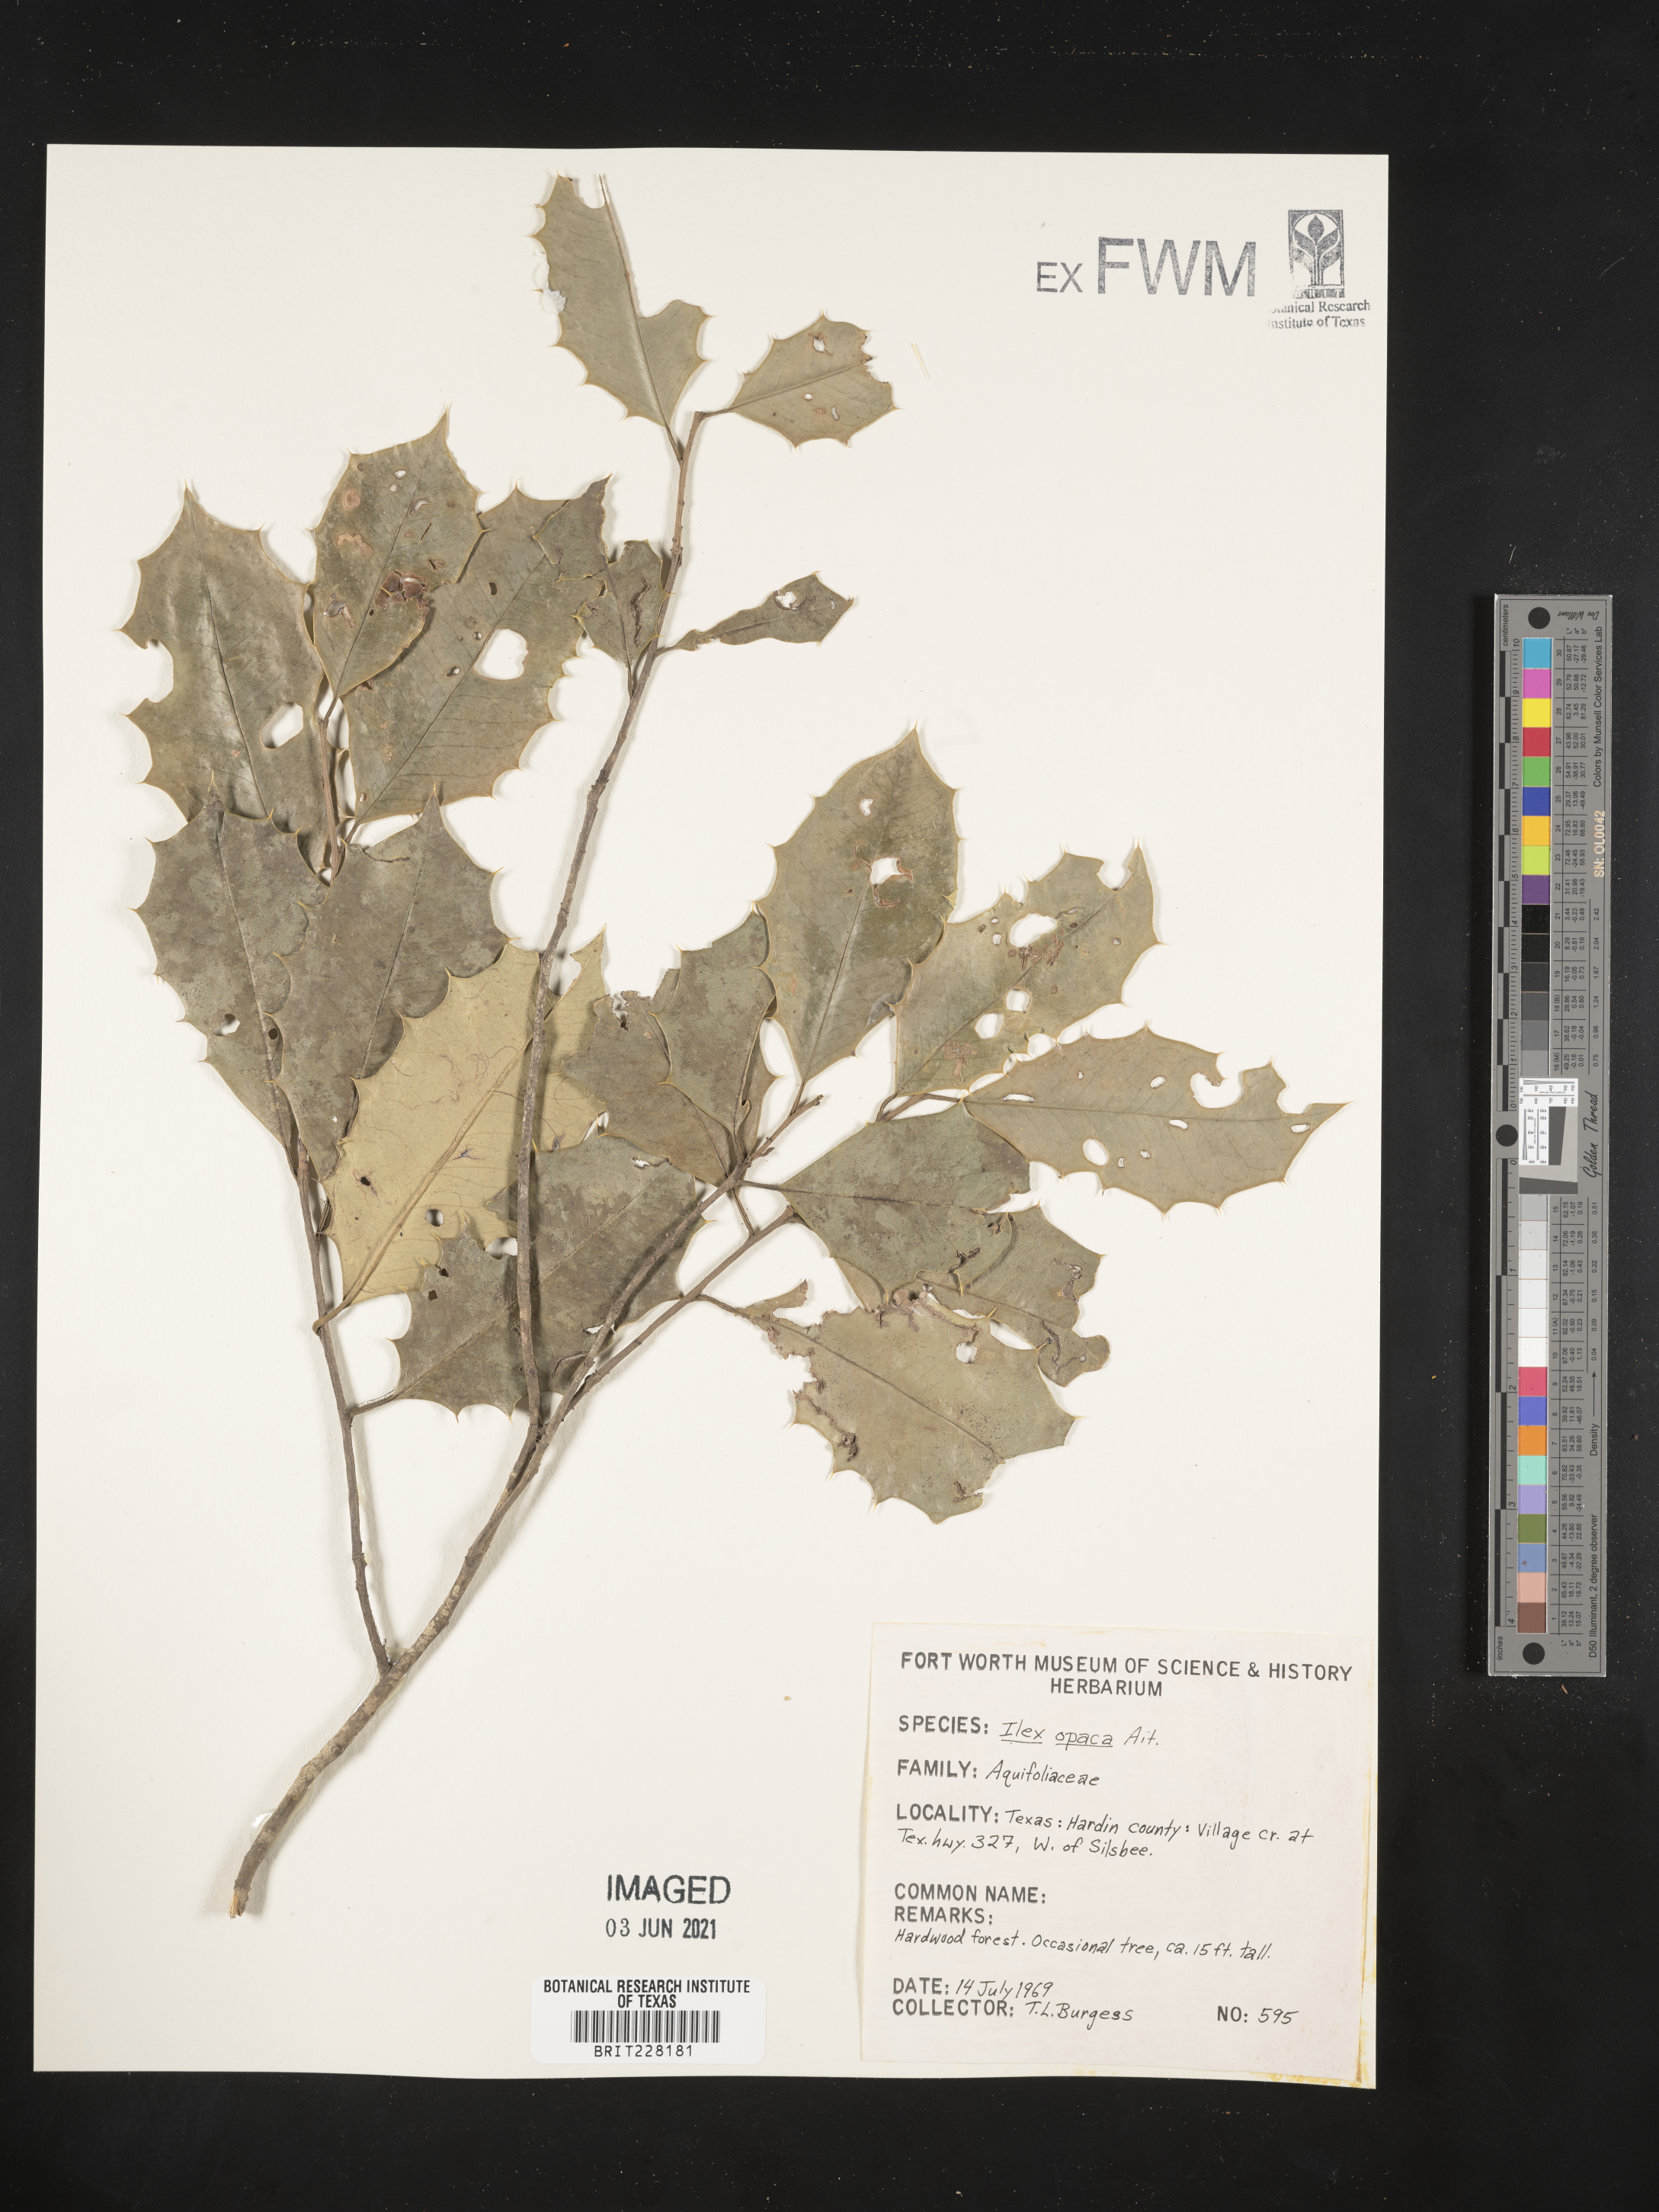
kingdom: Plantae
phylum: Tracheophyta
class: Magnoliopsida
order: Aquifoliales
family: Aquifoliaceae
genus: Ilex
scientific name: Ilex opaca
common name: American holly
